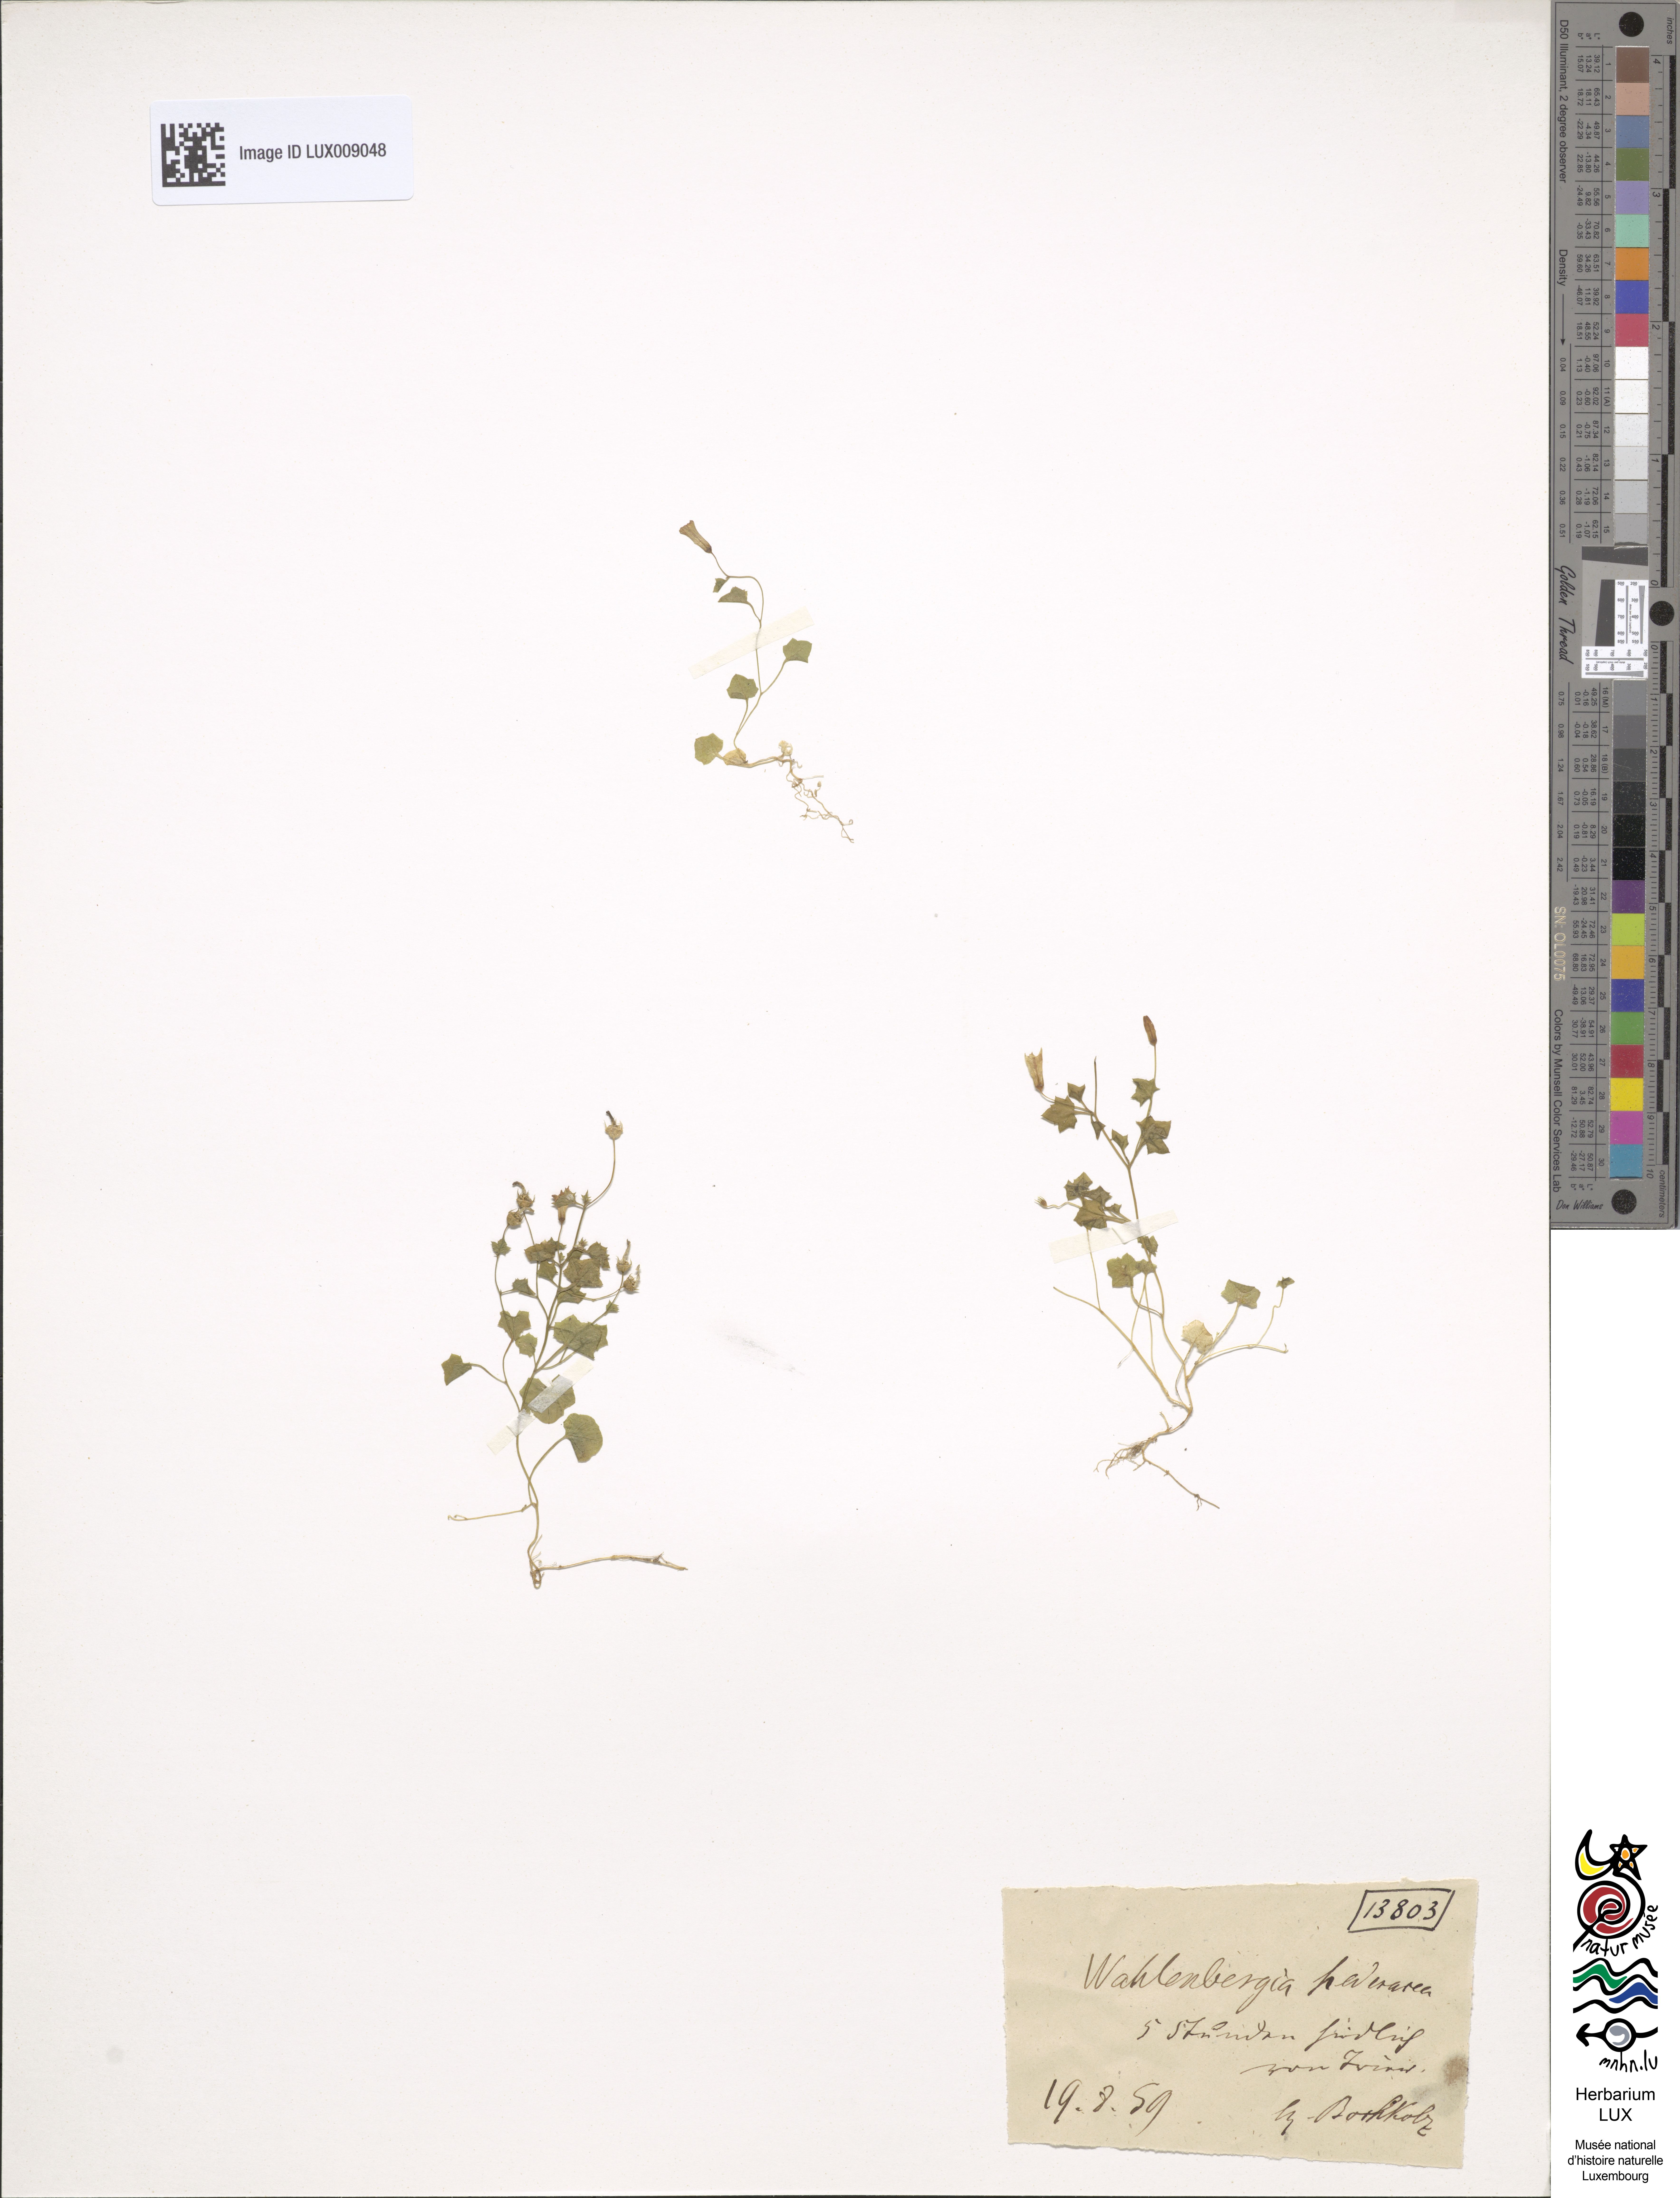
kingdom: Plantae
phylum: Tracheophyta
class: Magnoliopsida
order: Asterales
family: Campanulaceae
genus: Hesperocodon
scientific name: Hesperocodon hederaceus
